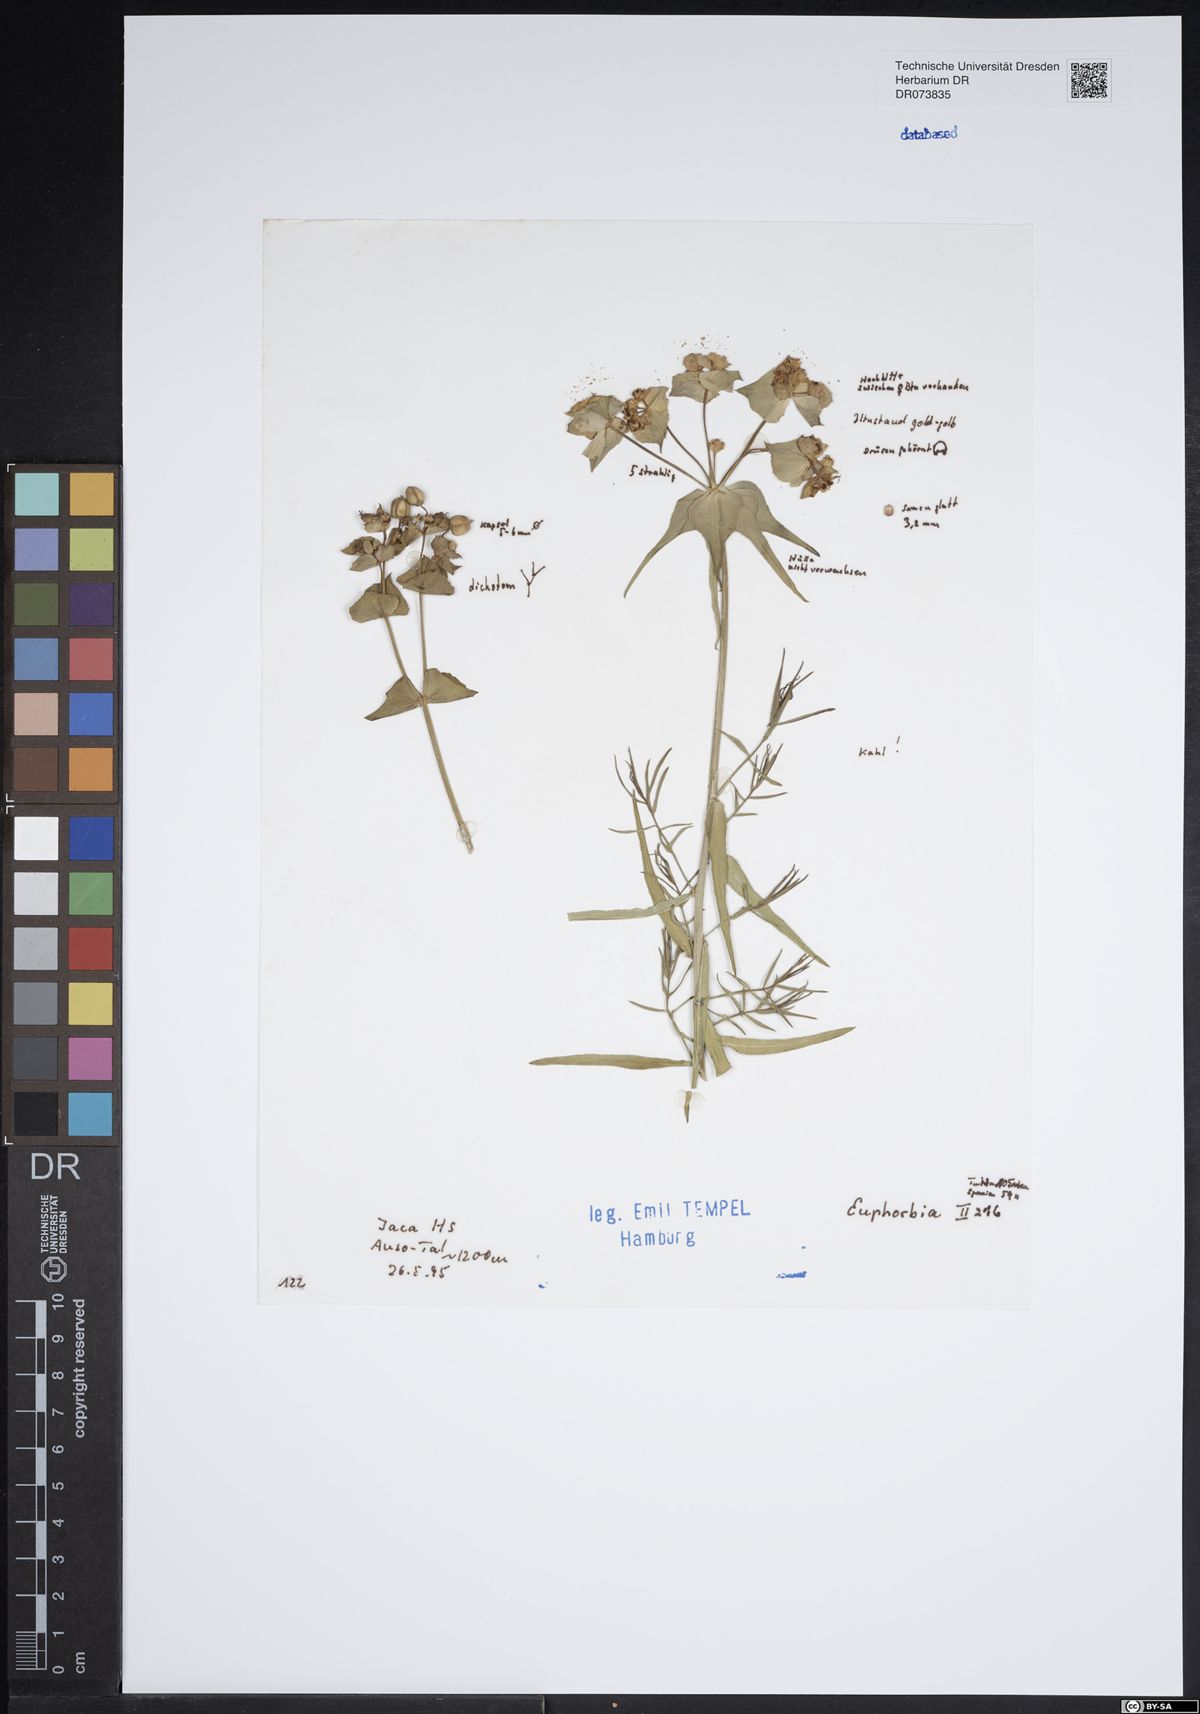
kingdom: Plantae
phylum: Tracheophyta
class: Magnoliopsida
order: Malpighiales
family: Euphorbiaceae
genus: Euphorbia
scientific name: Euphorbia
